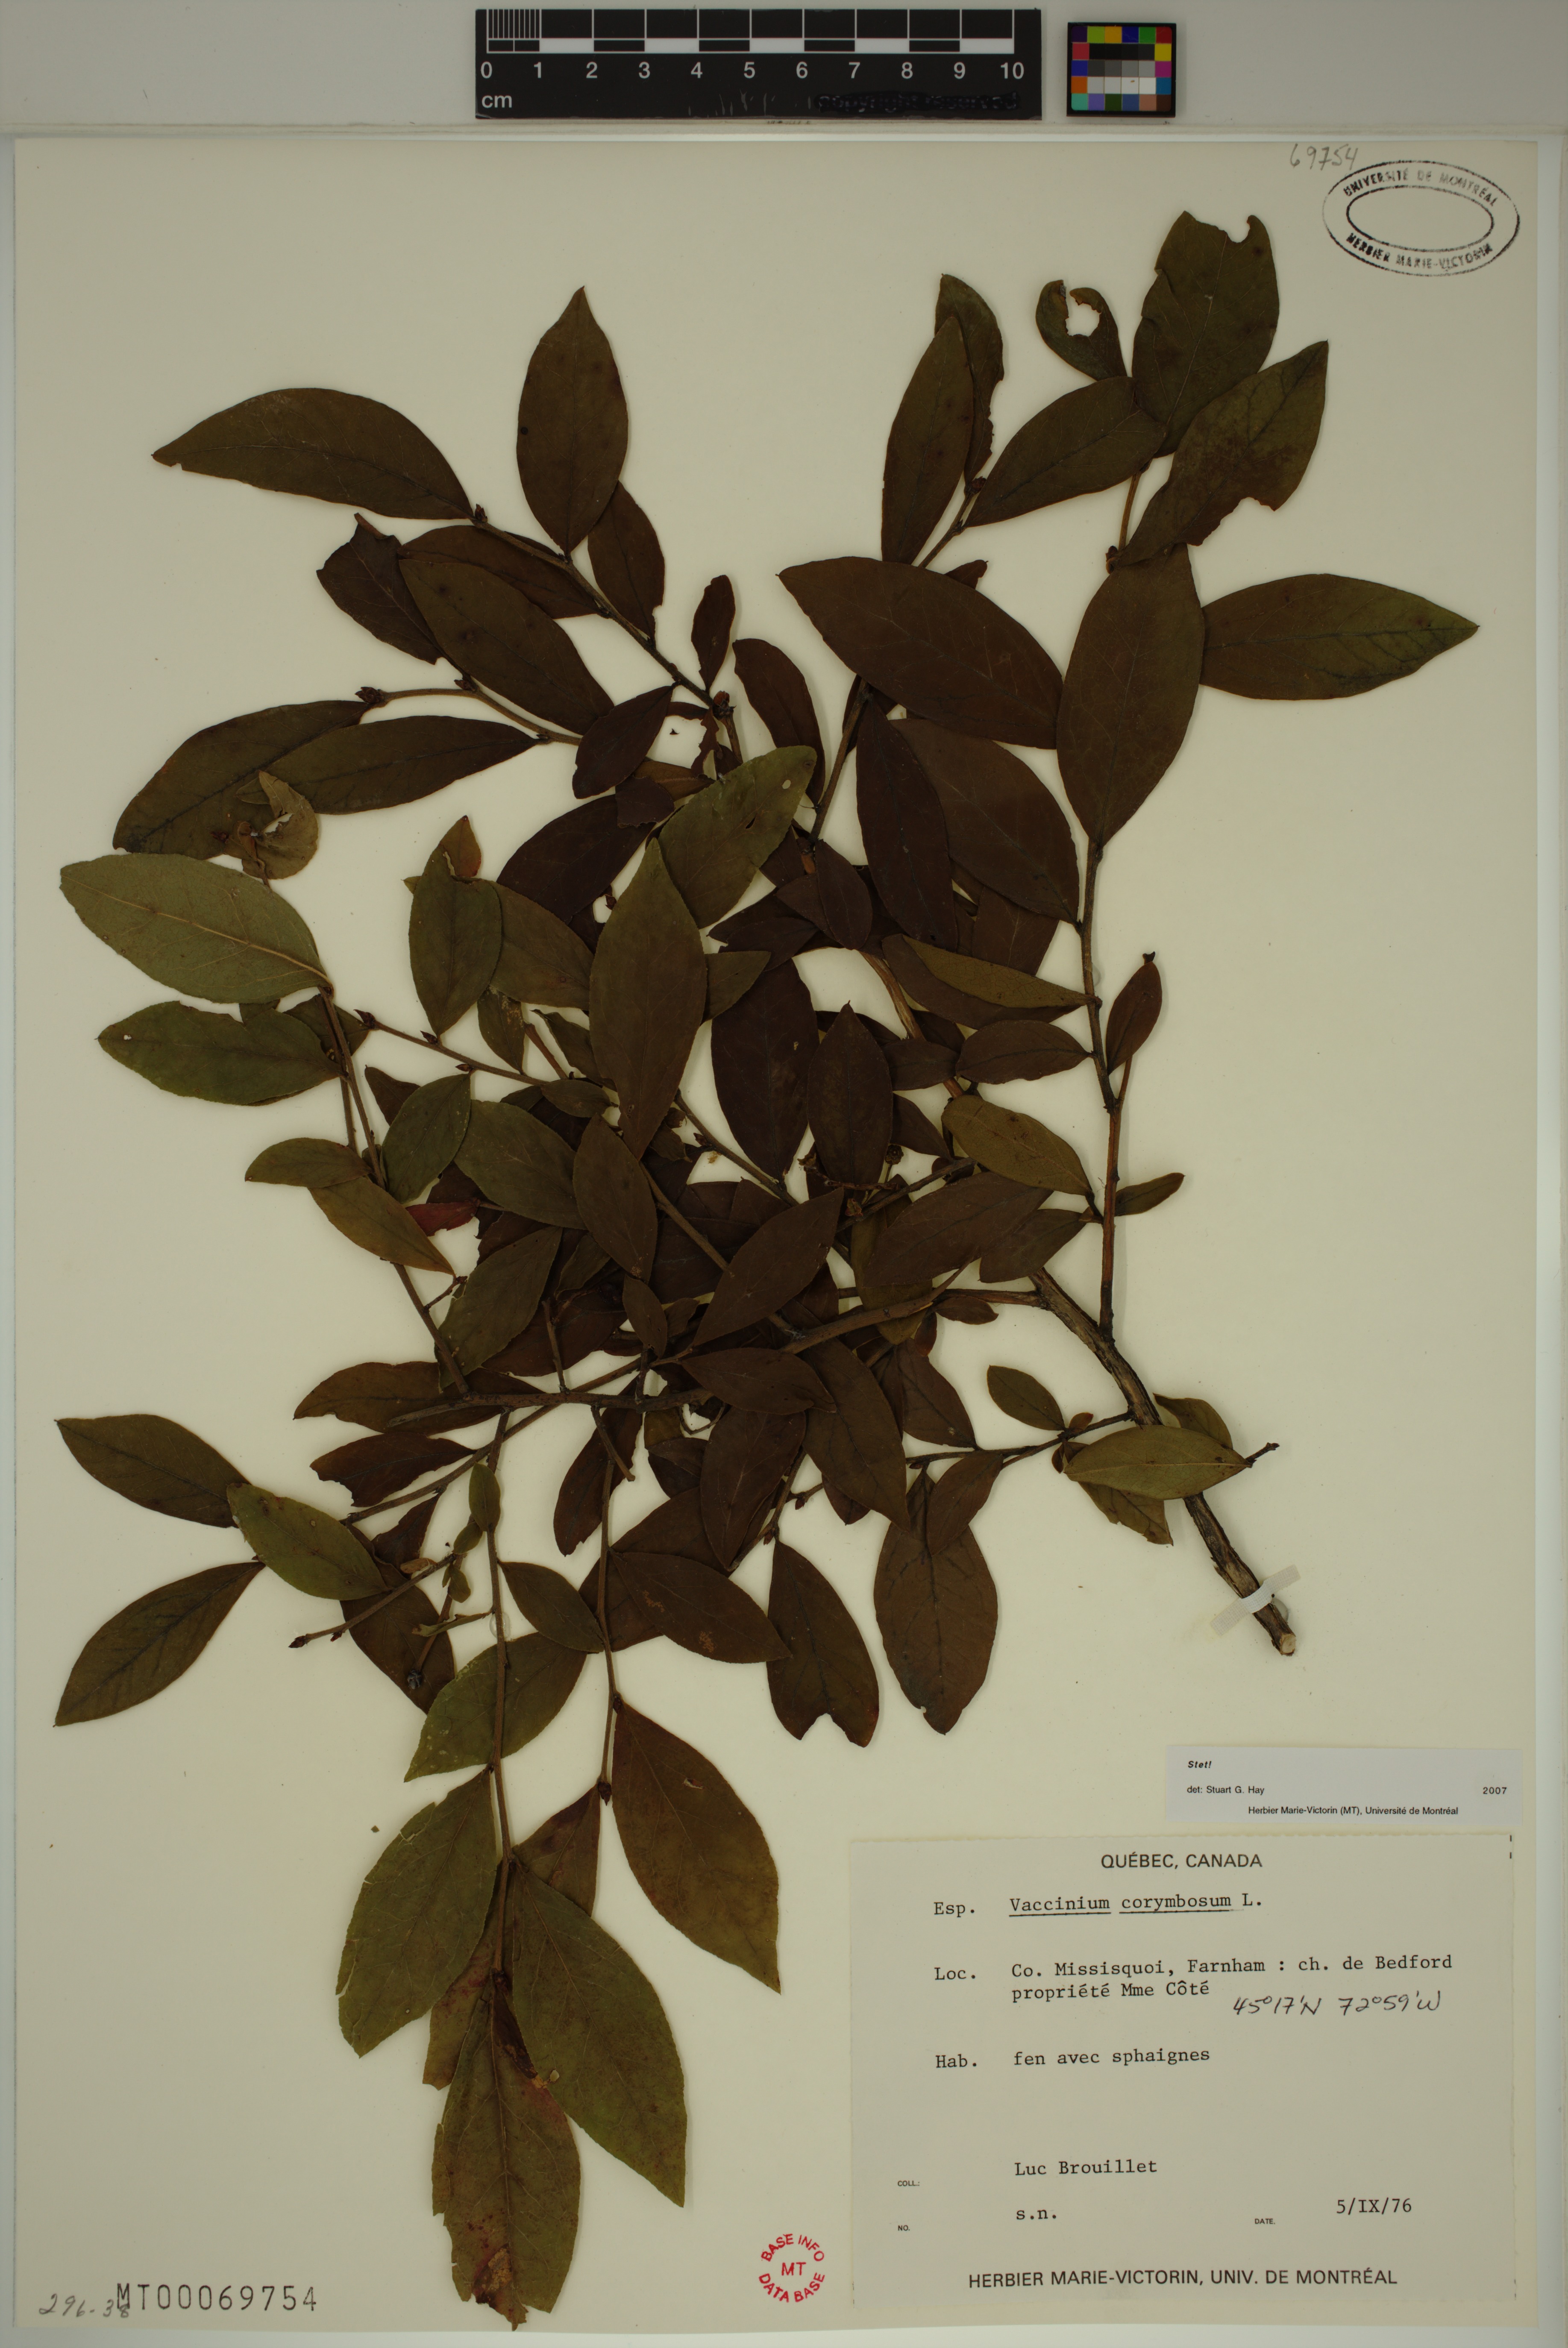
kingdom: Plantae
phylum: Tracheophyta
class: Magnoliopsida
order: Ericales
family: Ericaceae
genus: Vaccinium
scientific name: Vaccinium corymbosum
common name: Blueberry
